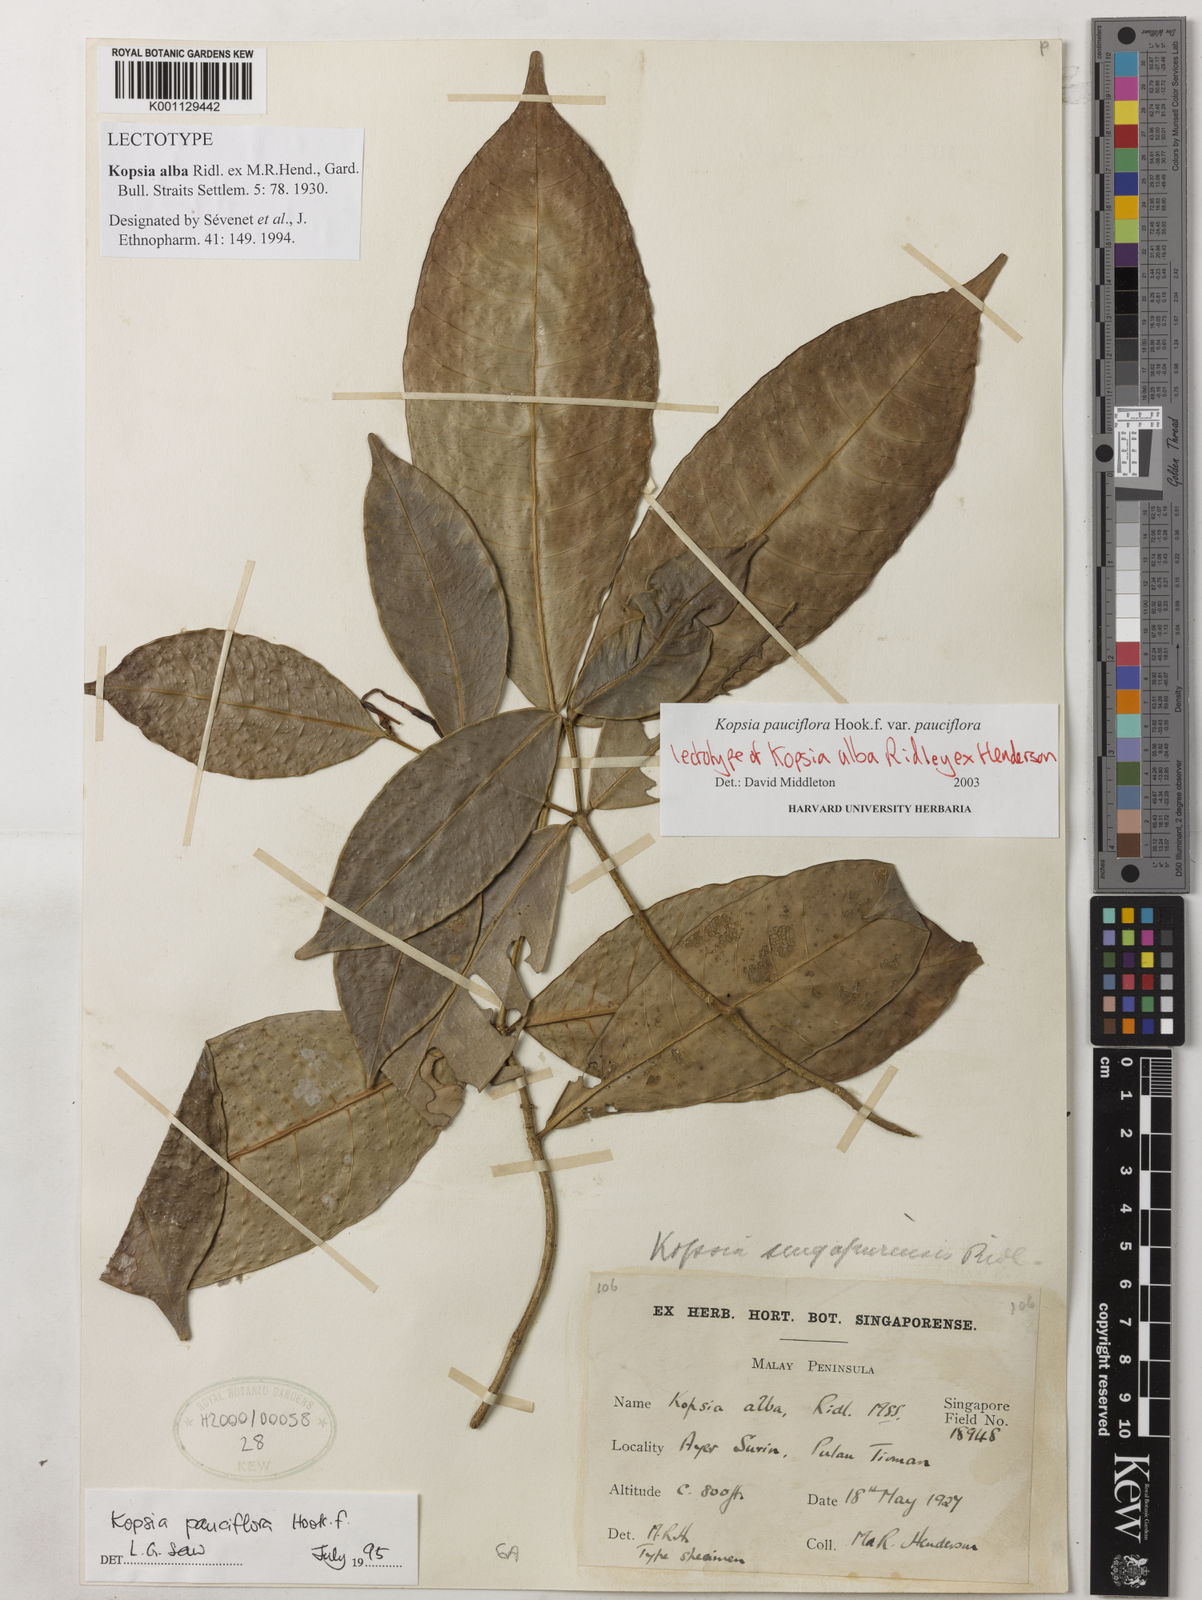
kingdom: Plantae
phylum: Tracheophyta
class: Magnoliopsida
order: Gentianales
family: Apocynaceae
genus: Kopsia
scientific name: Kopsia pauciflora
